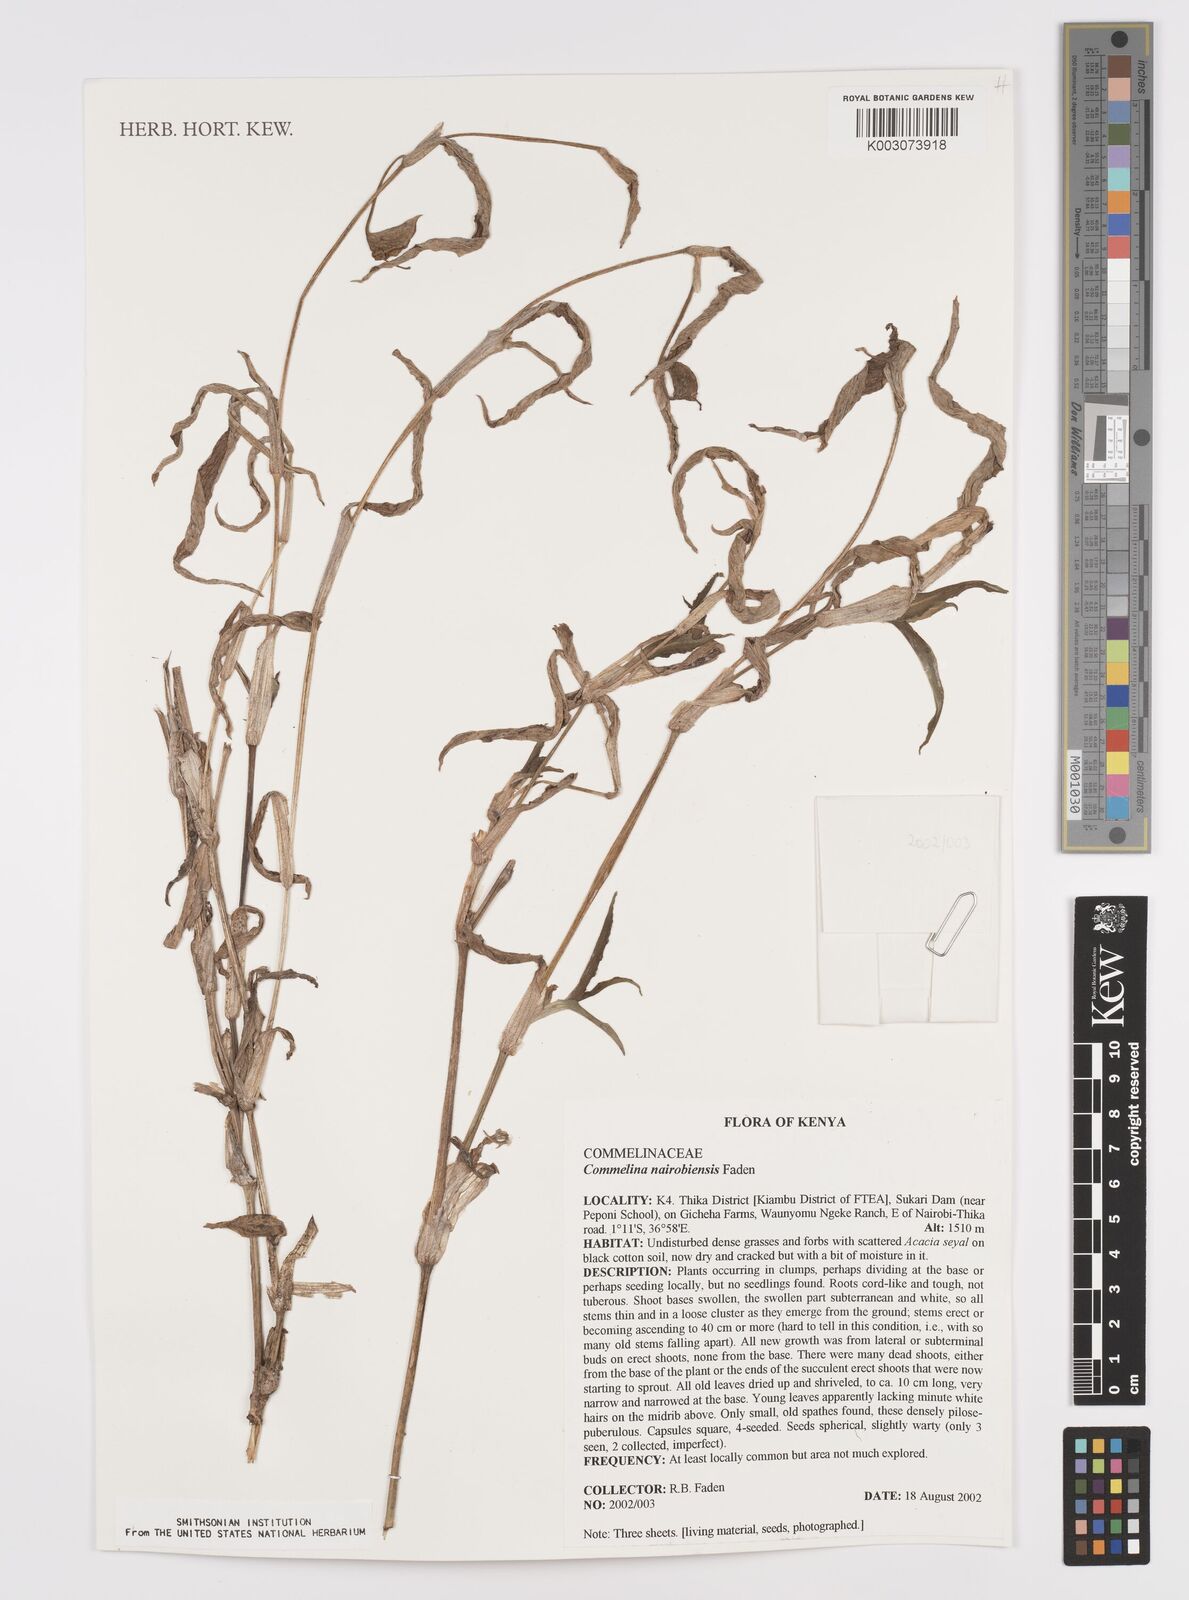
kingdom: Plantae
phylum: Tracheophyta
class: Liliopsida
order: Commelinales
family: Commelinaceae
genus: Commelina
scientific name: Commelina eckloniana
